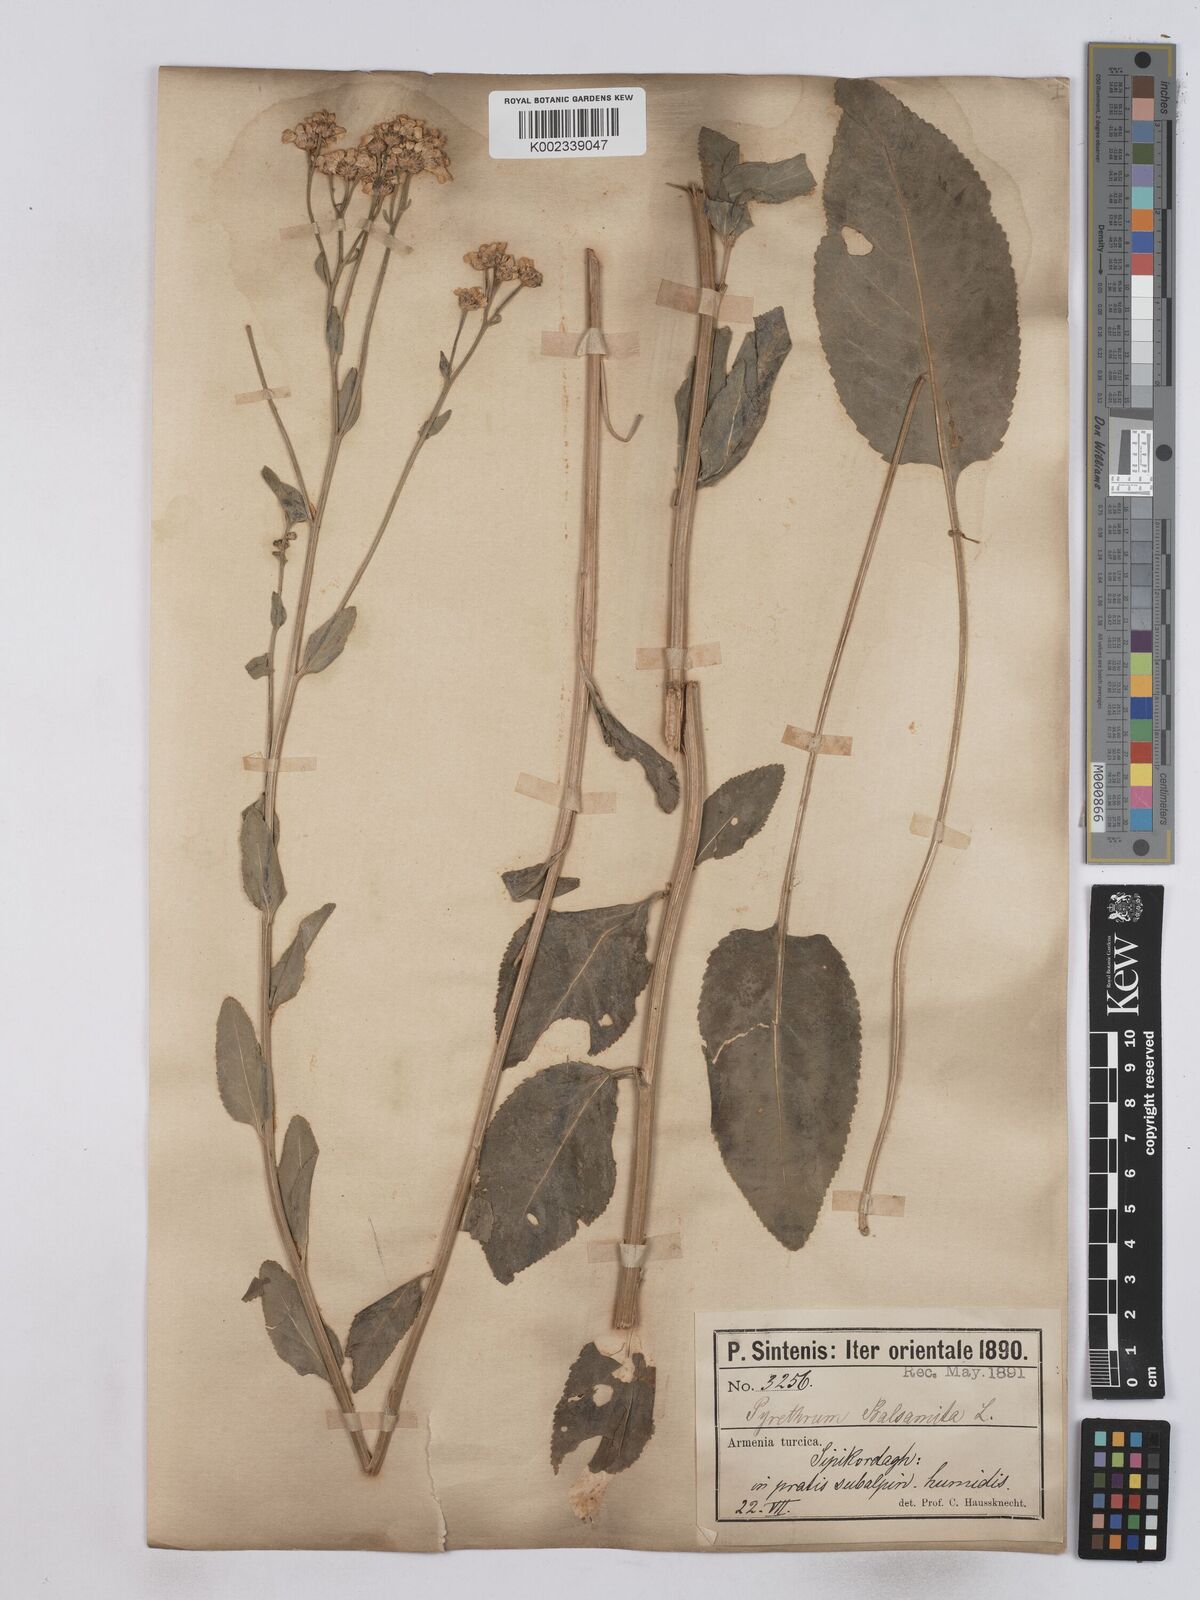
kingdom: Plantae
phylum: Tracheophyta
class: Magnoliopsida
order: Asterales
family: Asteraceae
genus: Tanacetum
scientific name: Tanacetum balsamita
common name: Costmary
